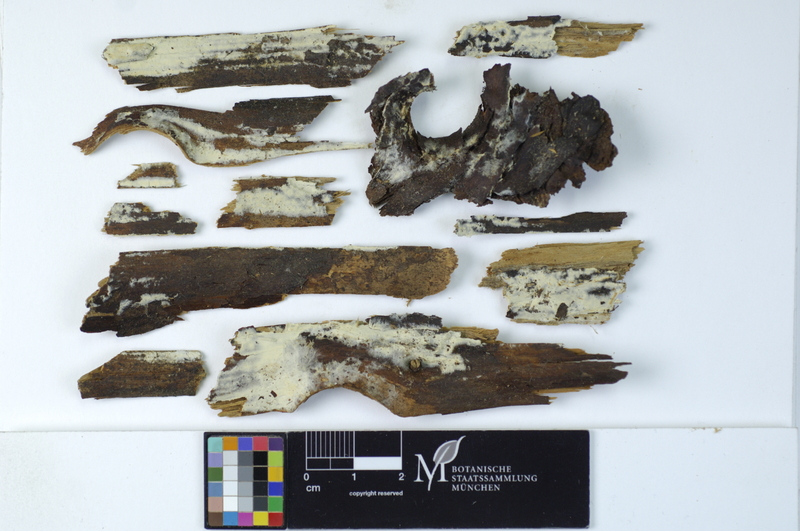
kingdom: Fungi
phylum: Basidiomycota
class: Agaricomycetes
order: Amylocorticiales
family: Amylocorticiaceae
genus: Amylocorticium
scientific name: Amylocorticium cebennense
